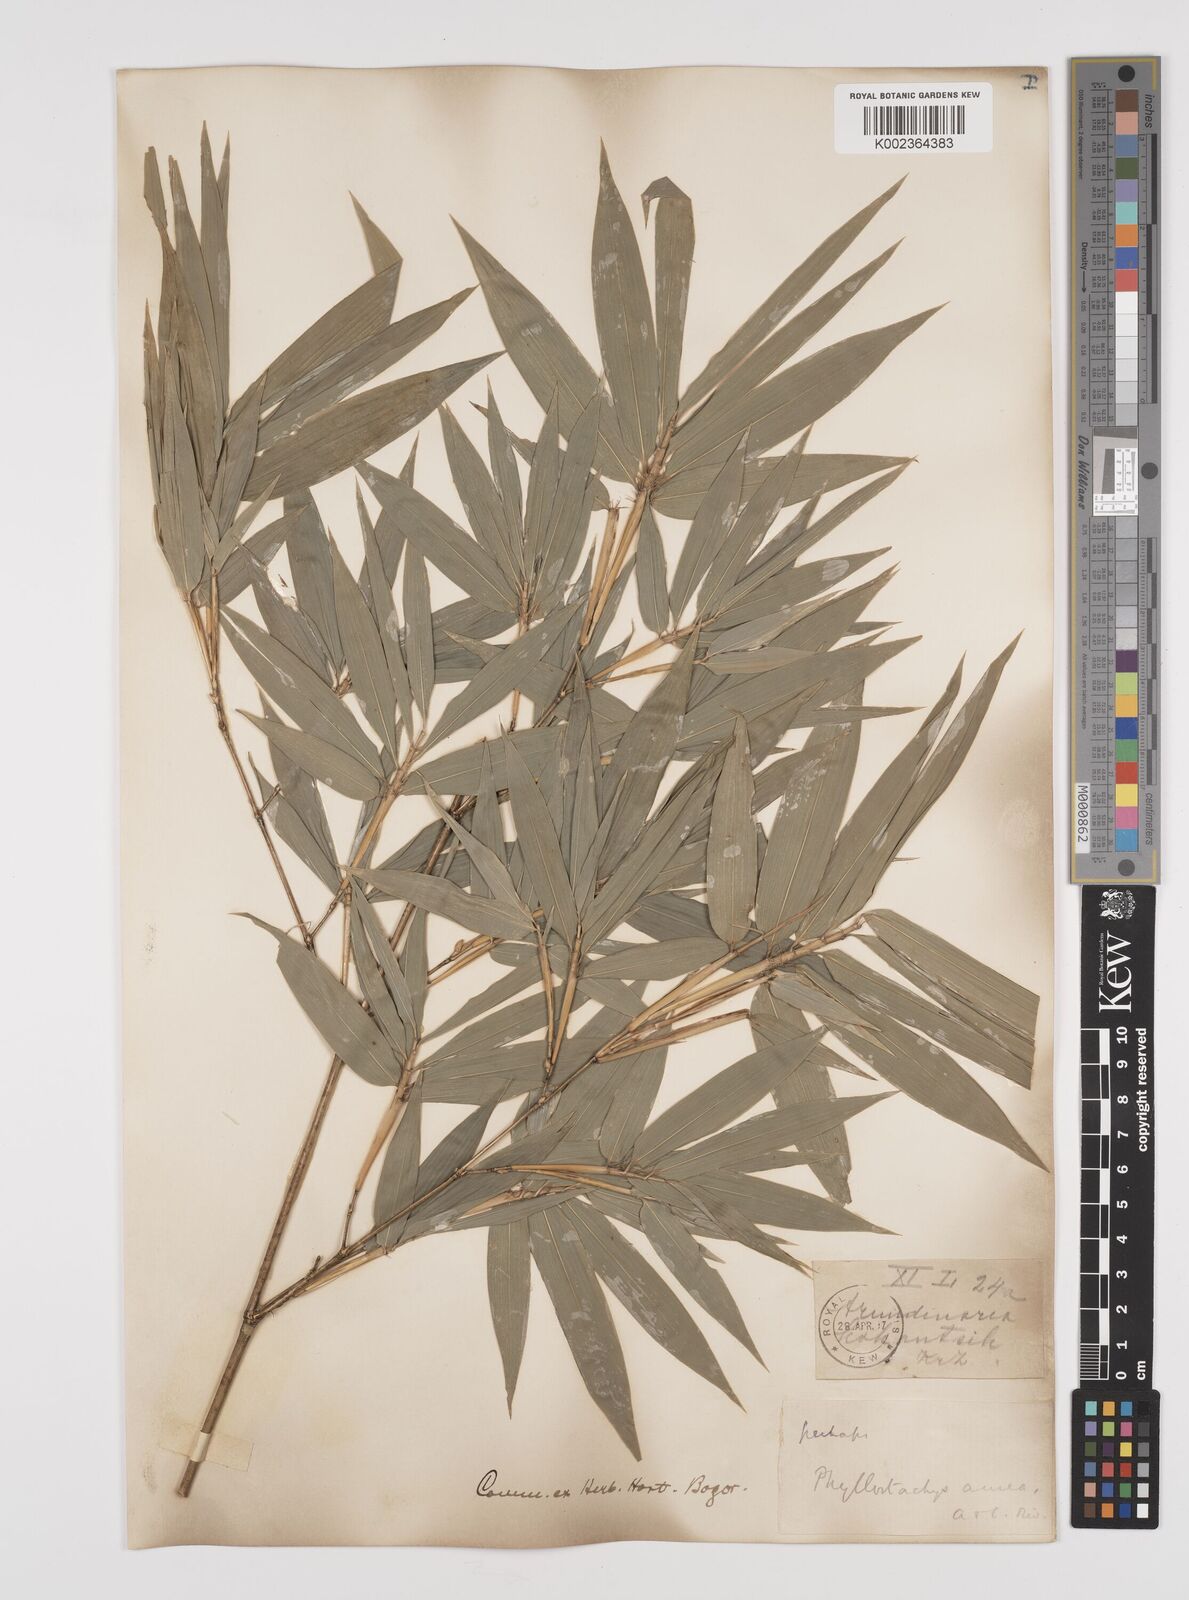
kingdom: Plantae
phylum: Tracheophyta
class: Liliopsida
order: Poales
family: Poaceae
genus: Phyllostachys
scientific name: Phyllostachys
